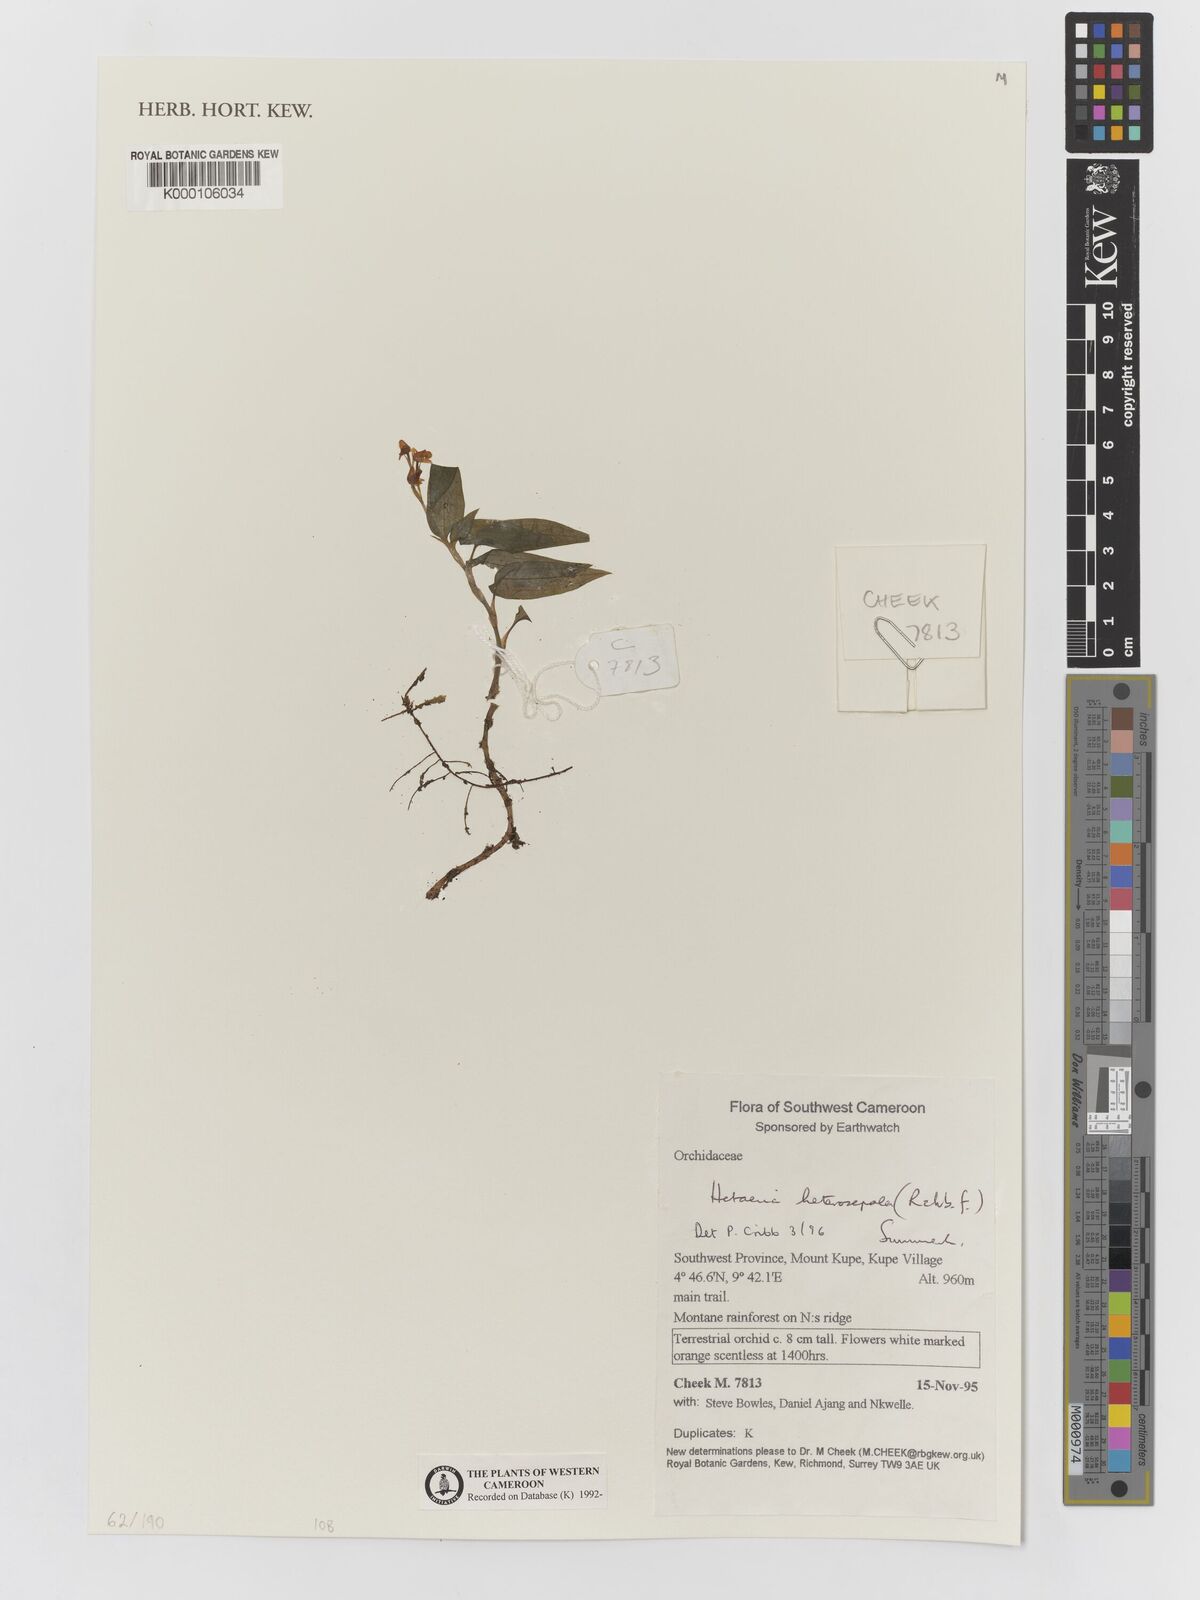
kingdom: Plantae
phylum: Tracheophyta
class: Liliopsida
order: Asparagales
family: Orchidaceae
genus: Hetaeria
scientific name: Hetaeria heterosepala
